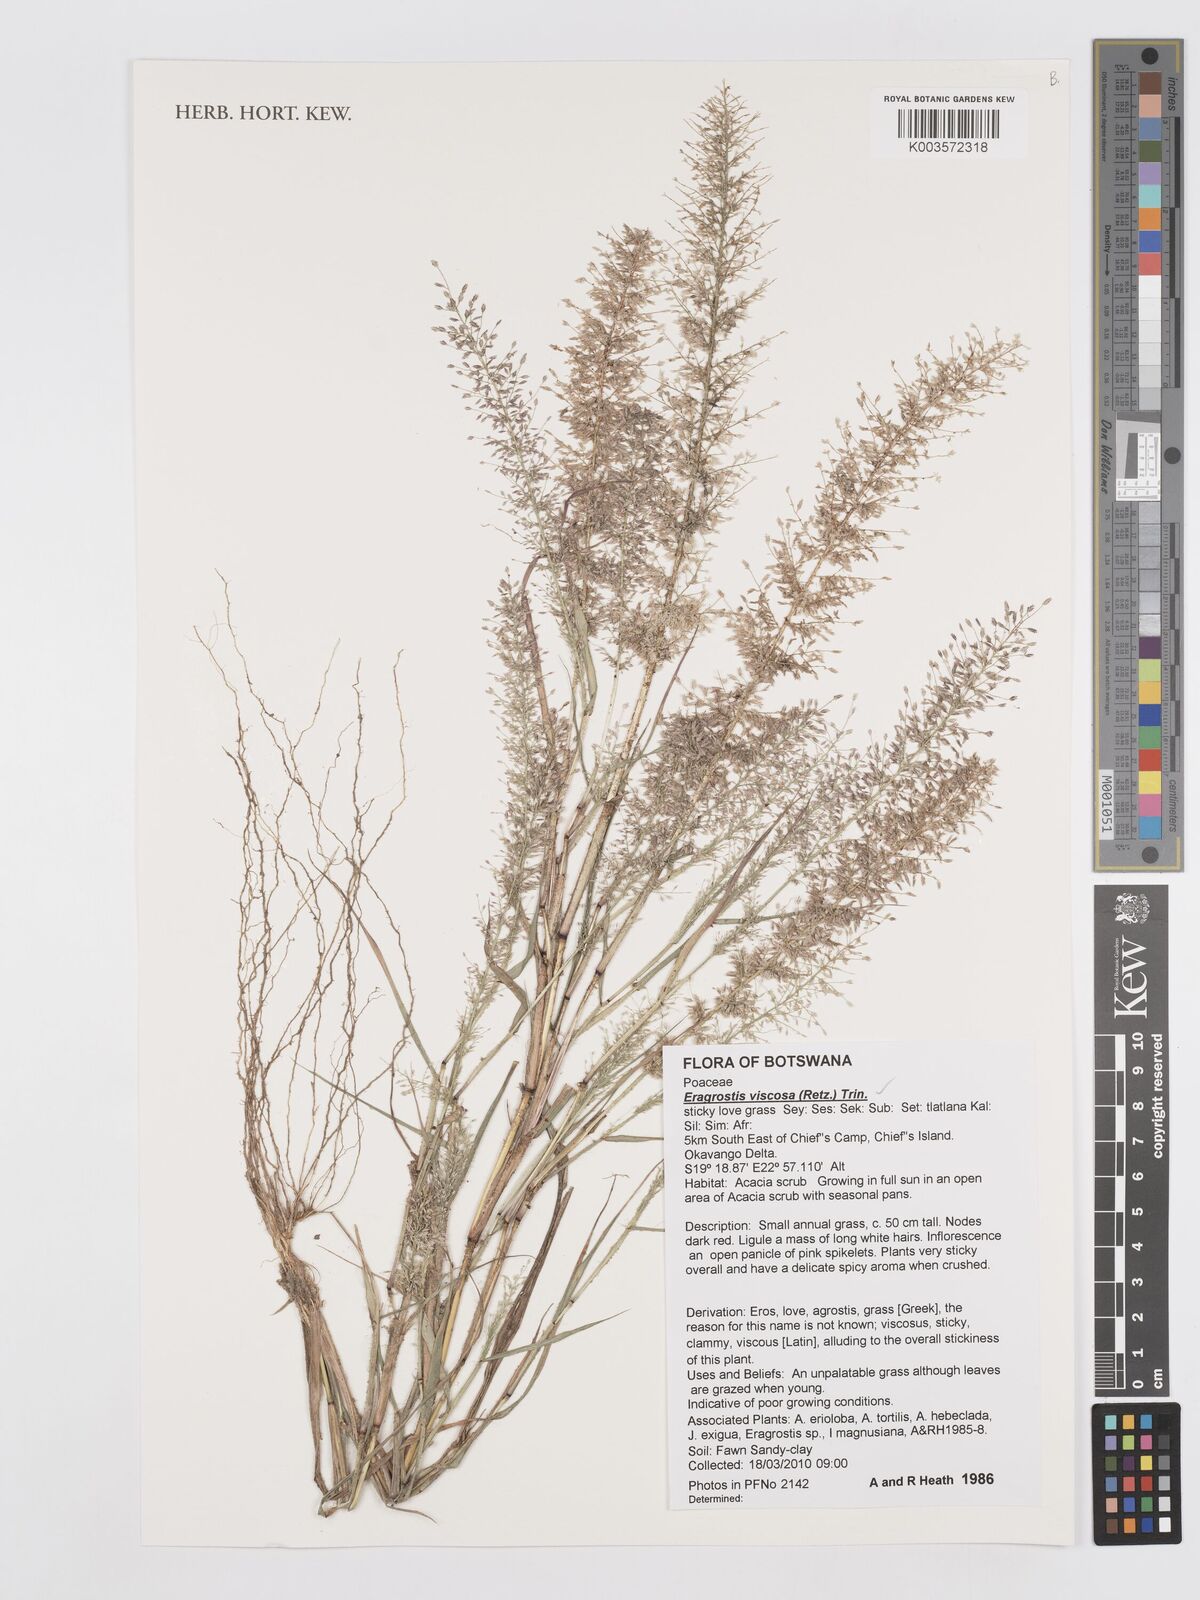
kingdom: Plantae
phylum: Tracheophyta
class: Liliopsida
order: Poales
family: Poaceae
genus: Eragrostis
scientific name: Eragrostis
